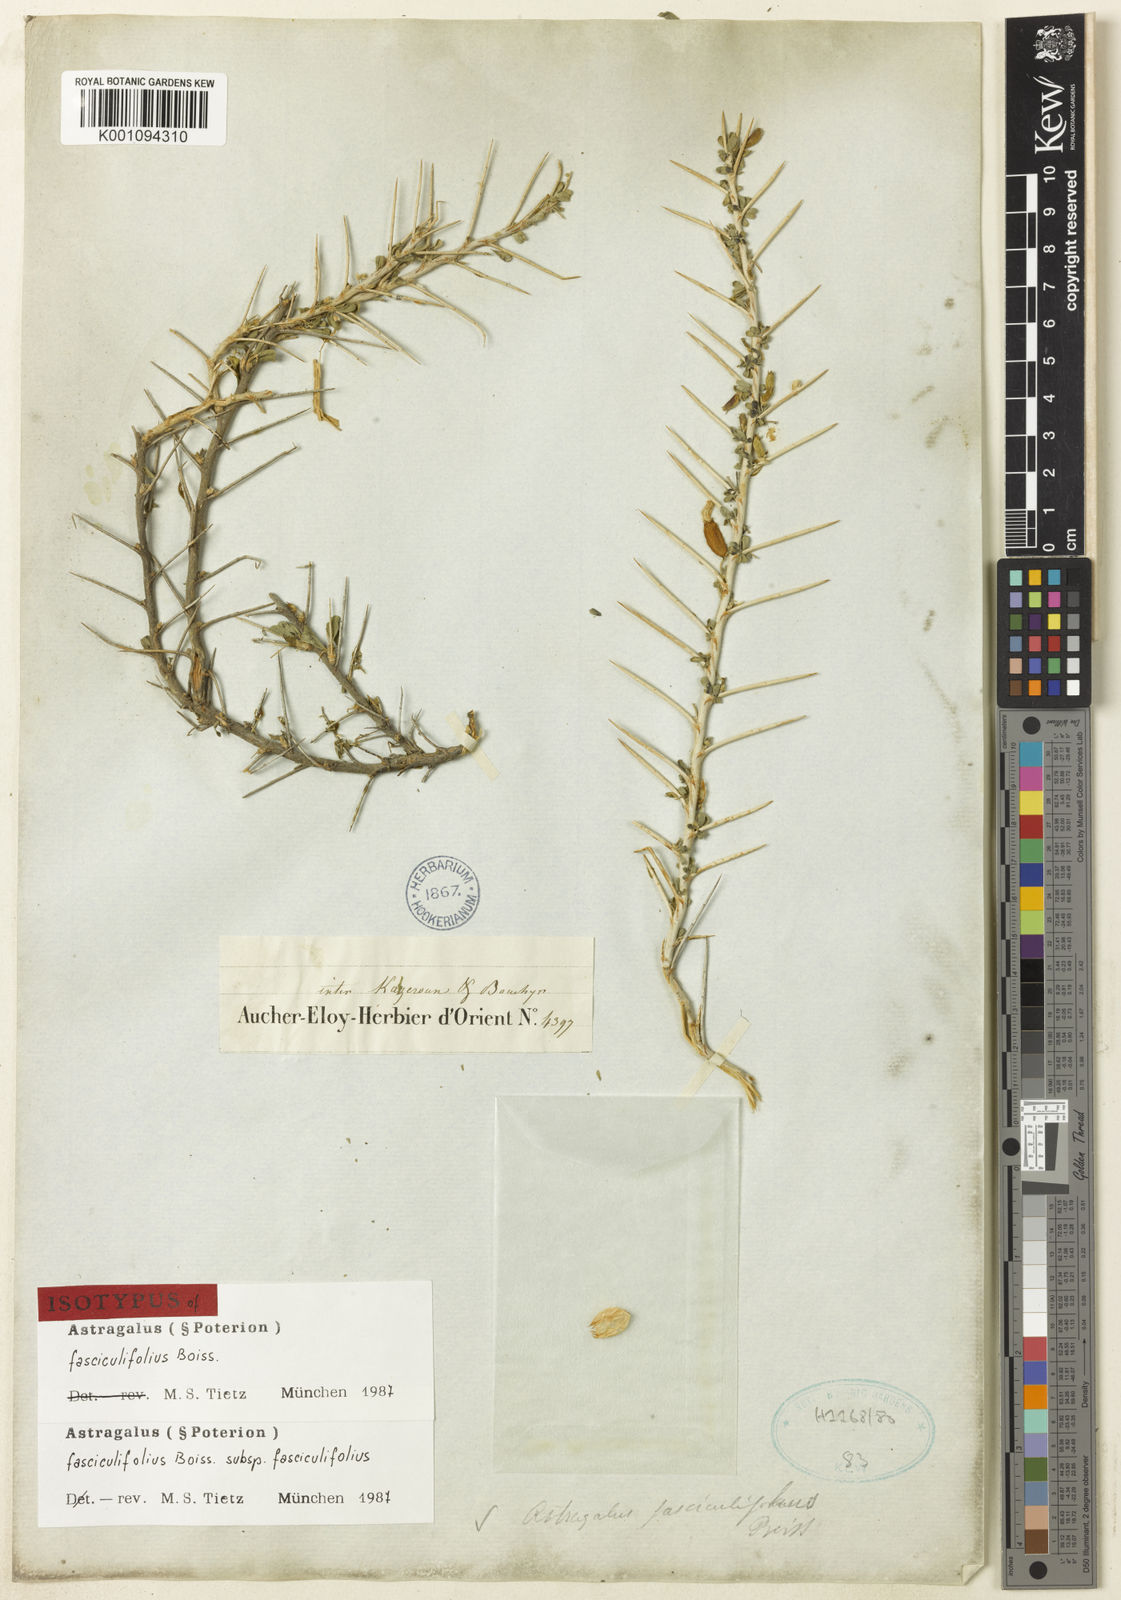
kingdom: Plantae
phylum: Tracheophyta
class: Magnoliopsida
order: Fabales
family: Fabaceae
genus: Astragalus
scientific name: Astragalus
